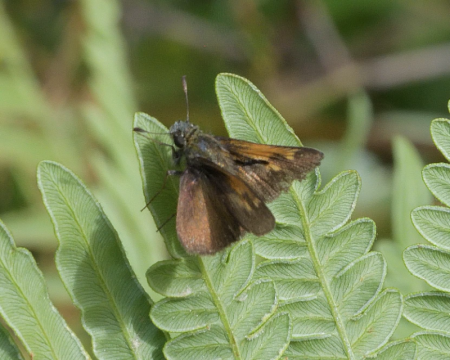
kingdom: Animalia
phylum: Arthropoda
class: Insecta
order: Lepidoptera
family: Hesperiidae
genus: Polites
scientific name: Polites themistocles
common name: Tawny-edged Skipper
